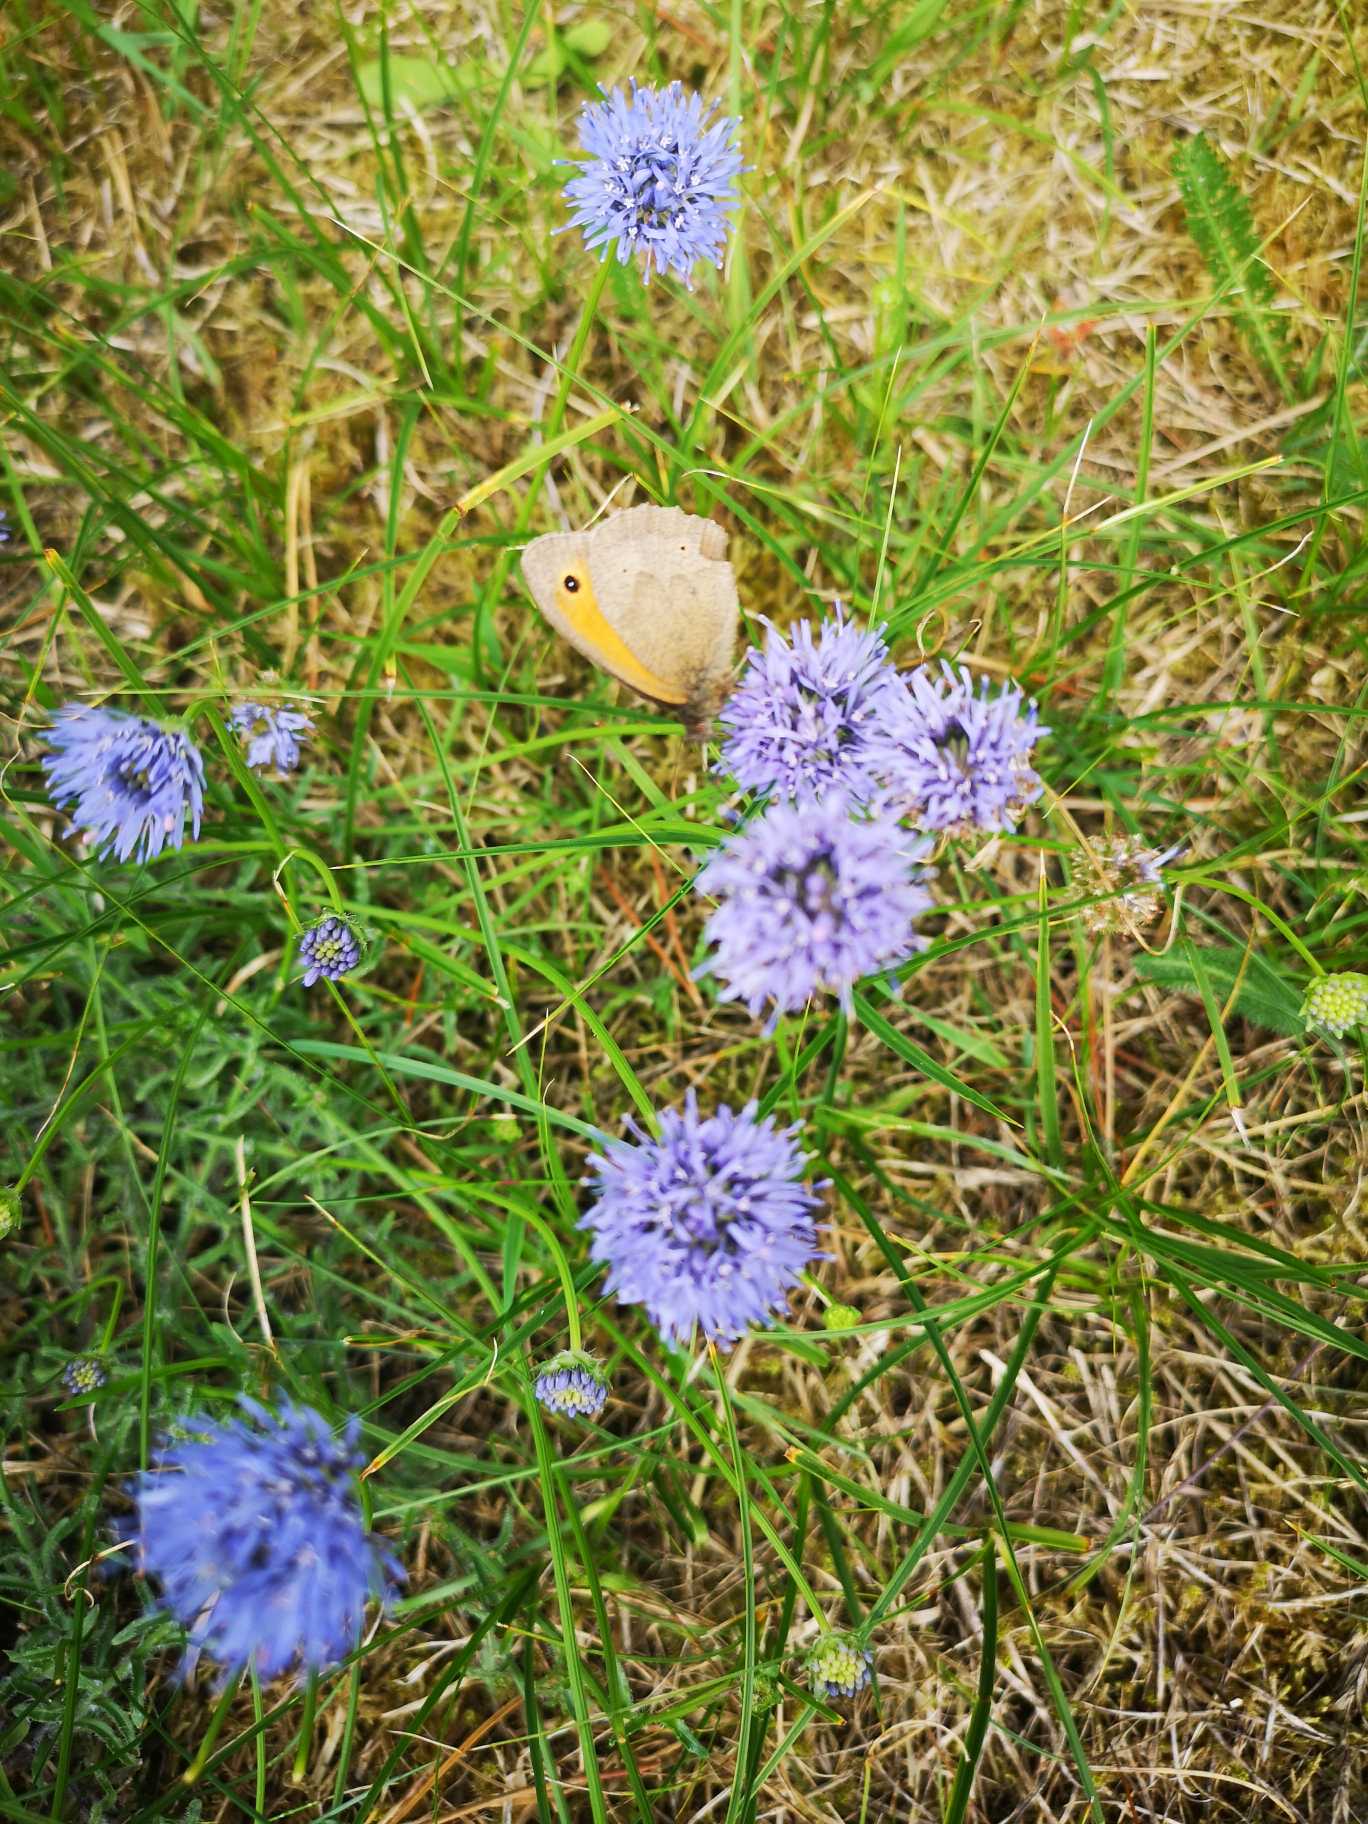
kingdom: Animalia
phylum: Arthropoda
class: Insecta
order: Lepidoptera
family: Nymphalidae
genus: Maniola
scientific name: Maniola jurtina
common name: Græsrandøje
